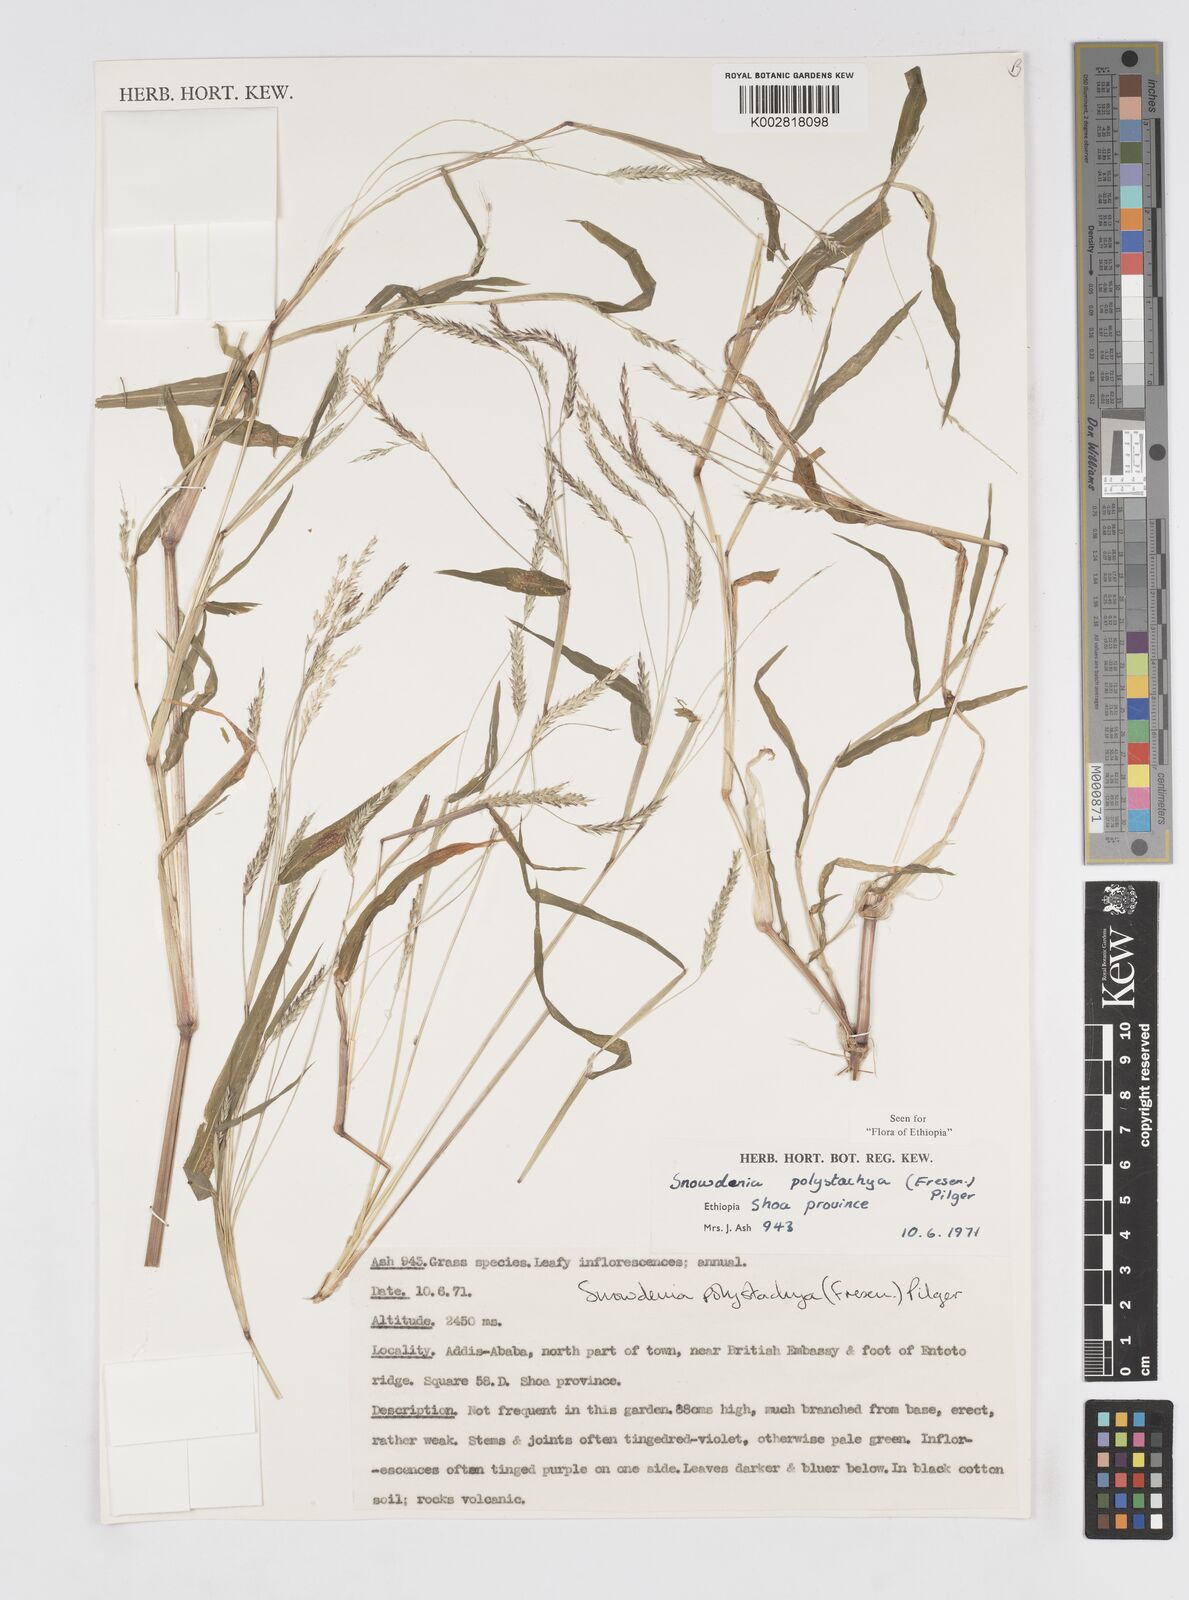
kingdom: Plantae
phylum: Tracheophyta
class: Liliopsida
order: Poales
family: Poaceae
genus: Snowdenia
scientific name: Snowdenia polystachya
